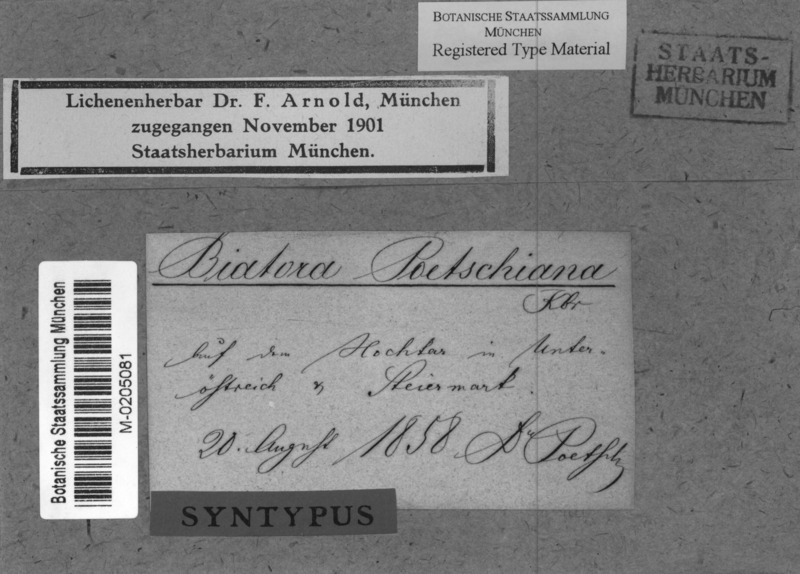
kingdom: Fungi
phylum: Ascomycota
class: Lecanoromycetes
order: Lecideales
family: Lecideaceae
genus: Lecidea
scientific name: Lecidea
